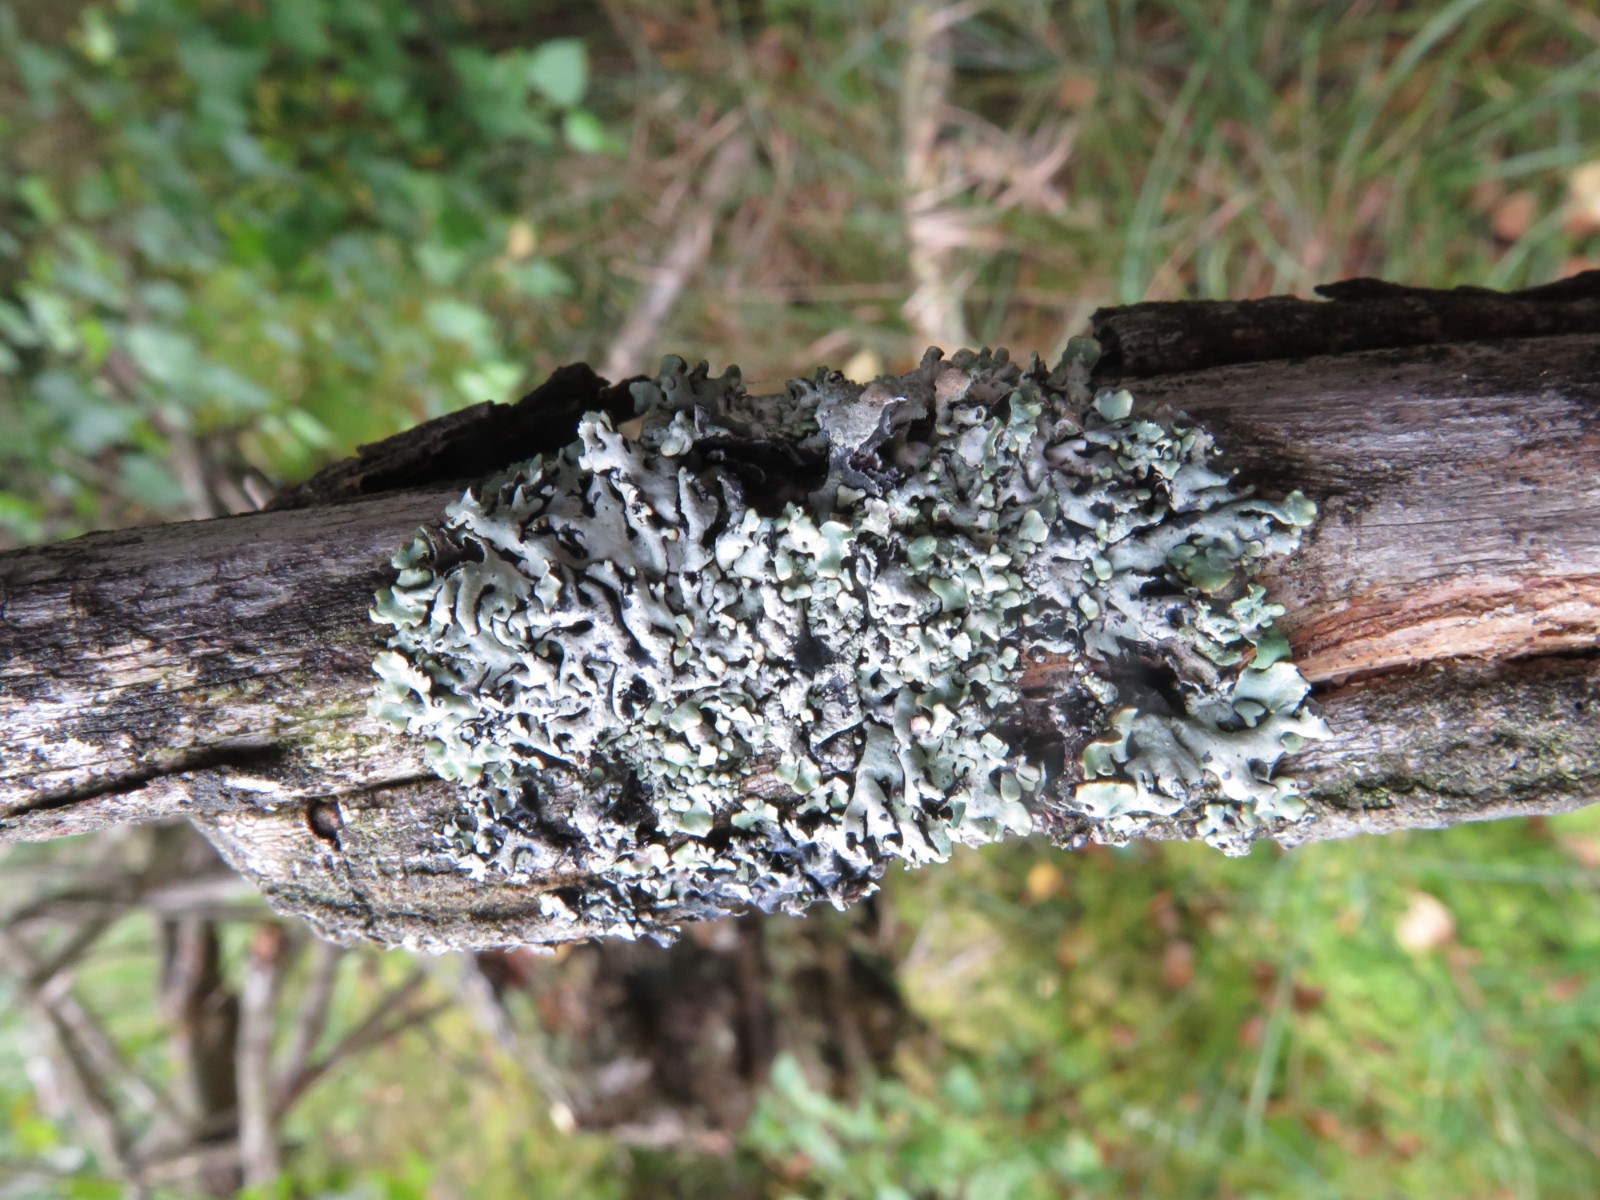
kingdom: Fungi
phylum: Ascomycota
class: Lecanoromycetes
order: Lecanorales
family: Parmeliaceae
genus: Hypogymnia
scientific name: Hypogymnia physodes
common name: almindelig kvistlav
